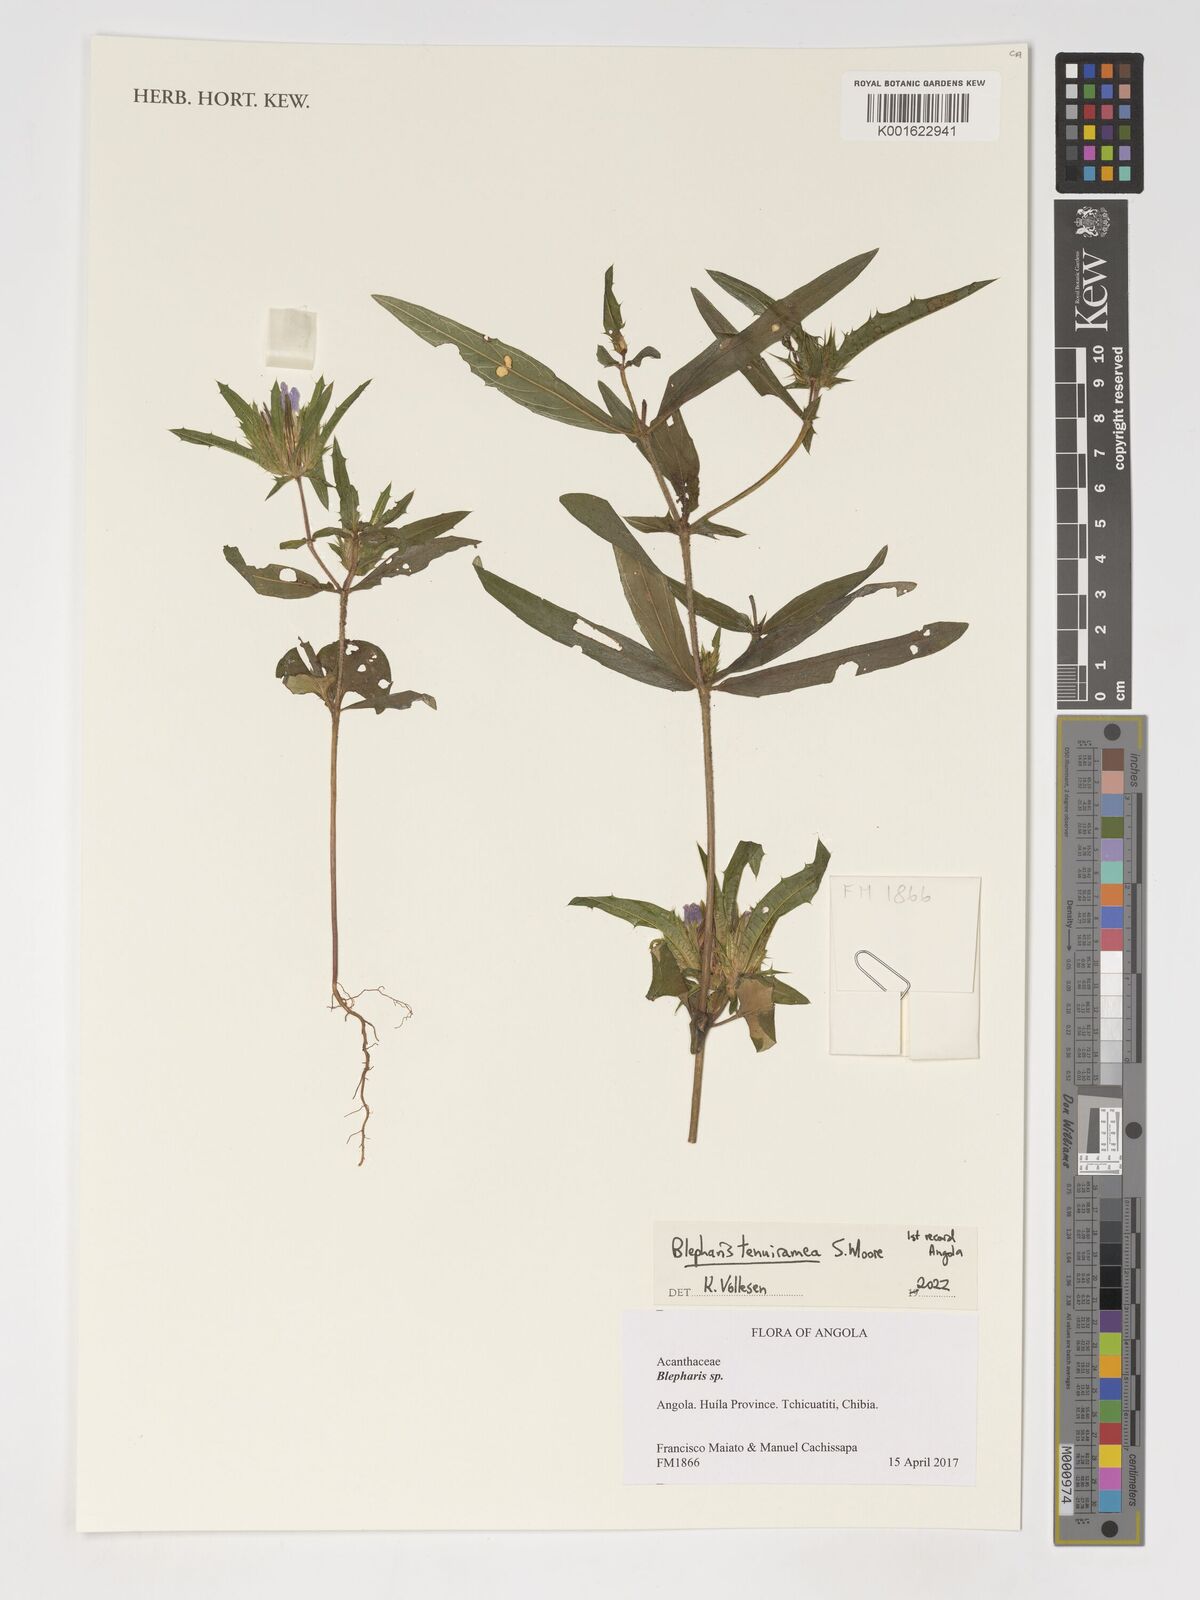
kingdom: Plantae
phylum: Tracheophyta
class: Magnoliopsida
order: Lamiales
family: Acanthaceae
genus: Blepharis
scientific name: Blepharis tenuiramea
